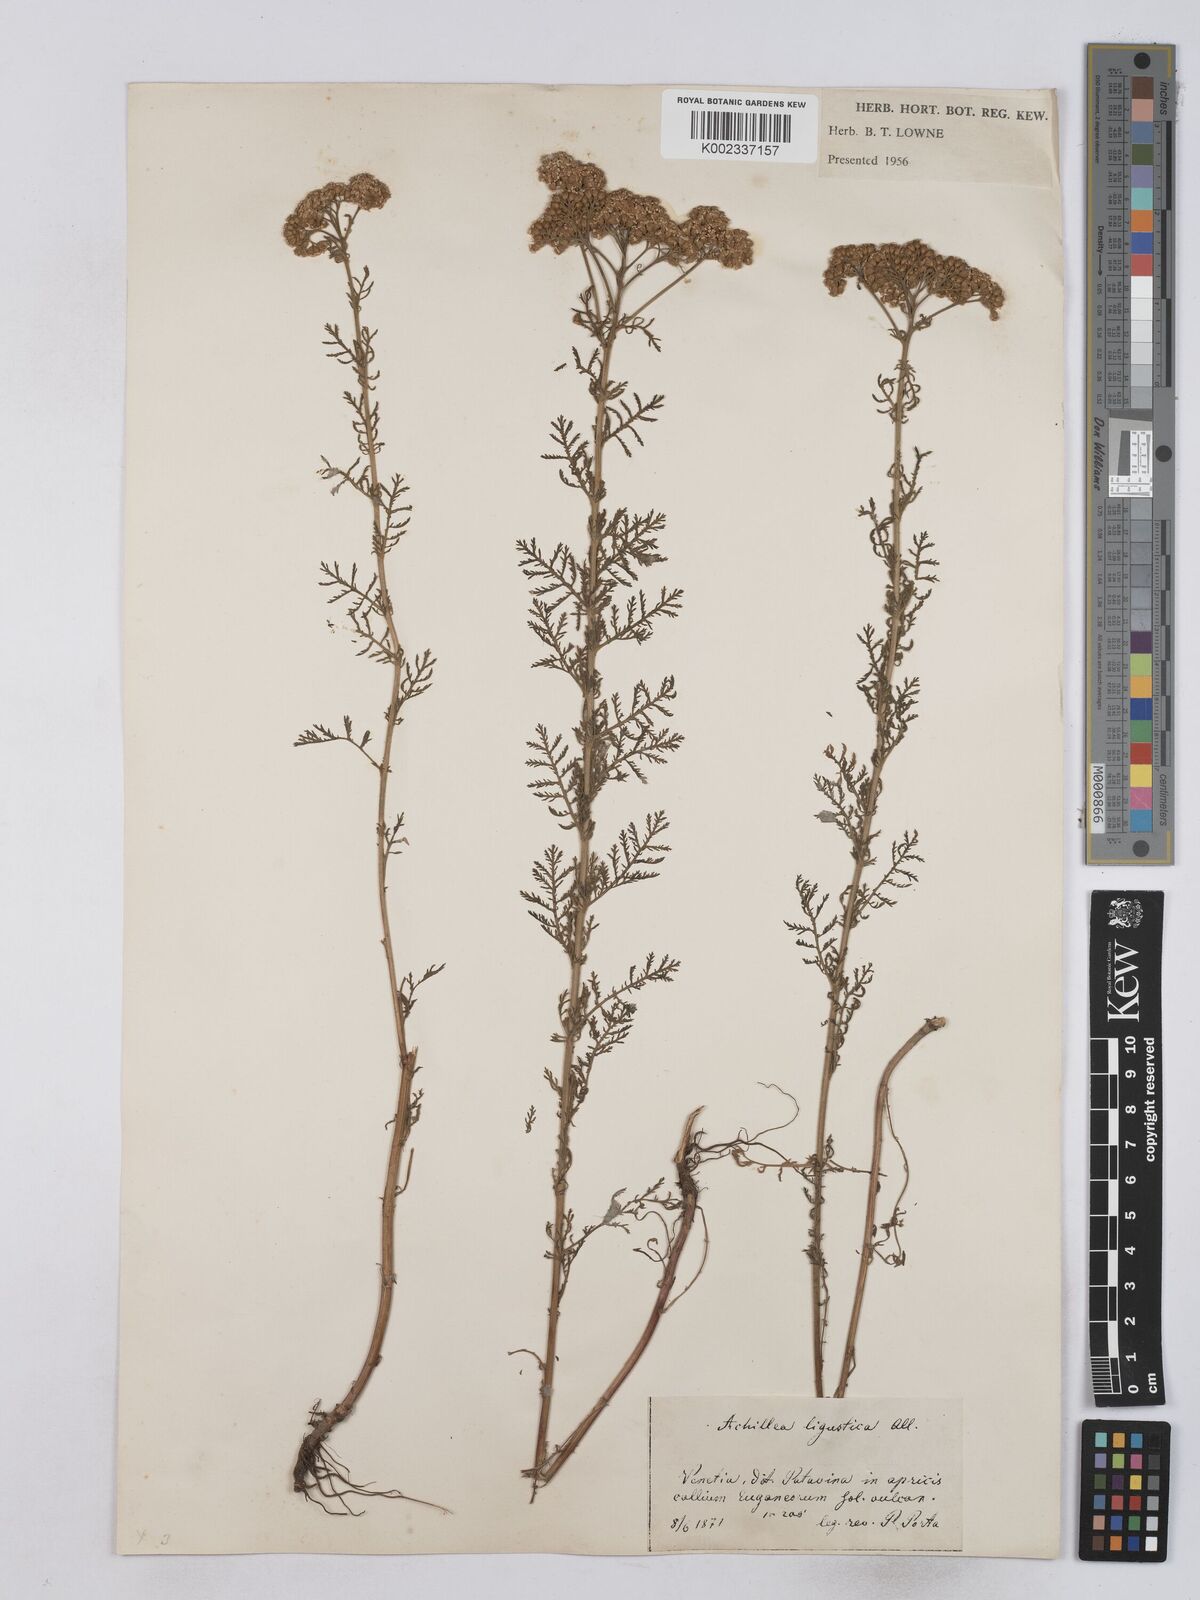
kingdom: Plantae
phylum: Tracheophyta
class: Magnoliopsida
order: Asterales
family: Asteraceae
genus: Achillea
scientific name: Achillea ligustica
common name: Southern yarrow
